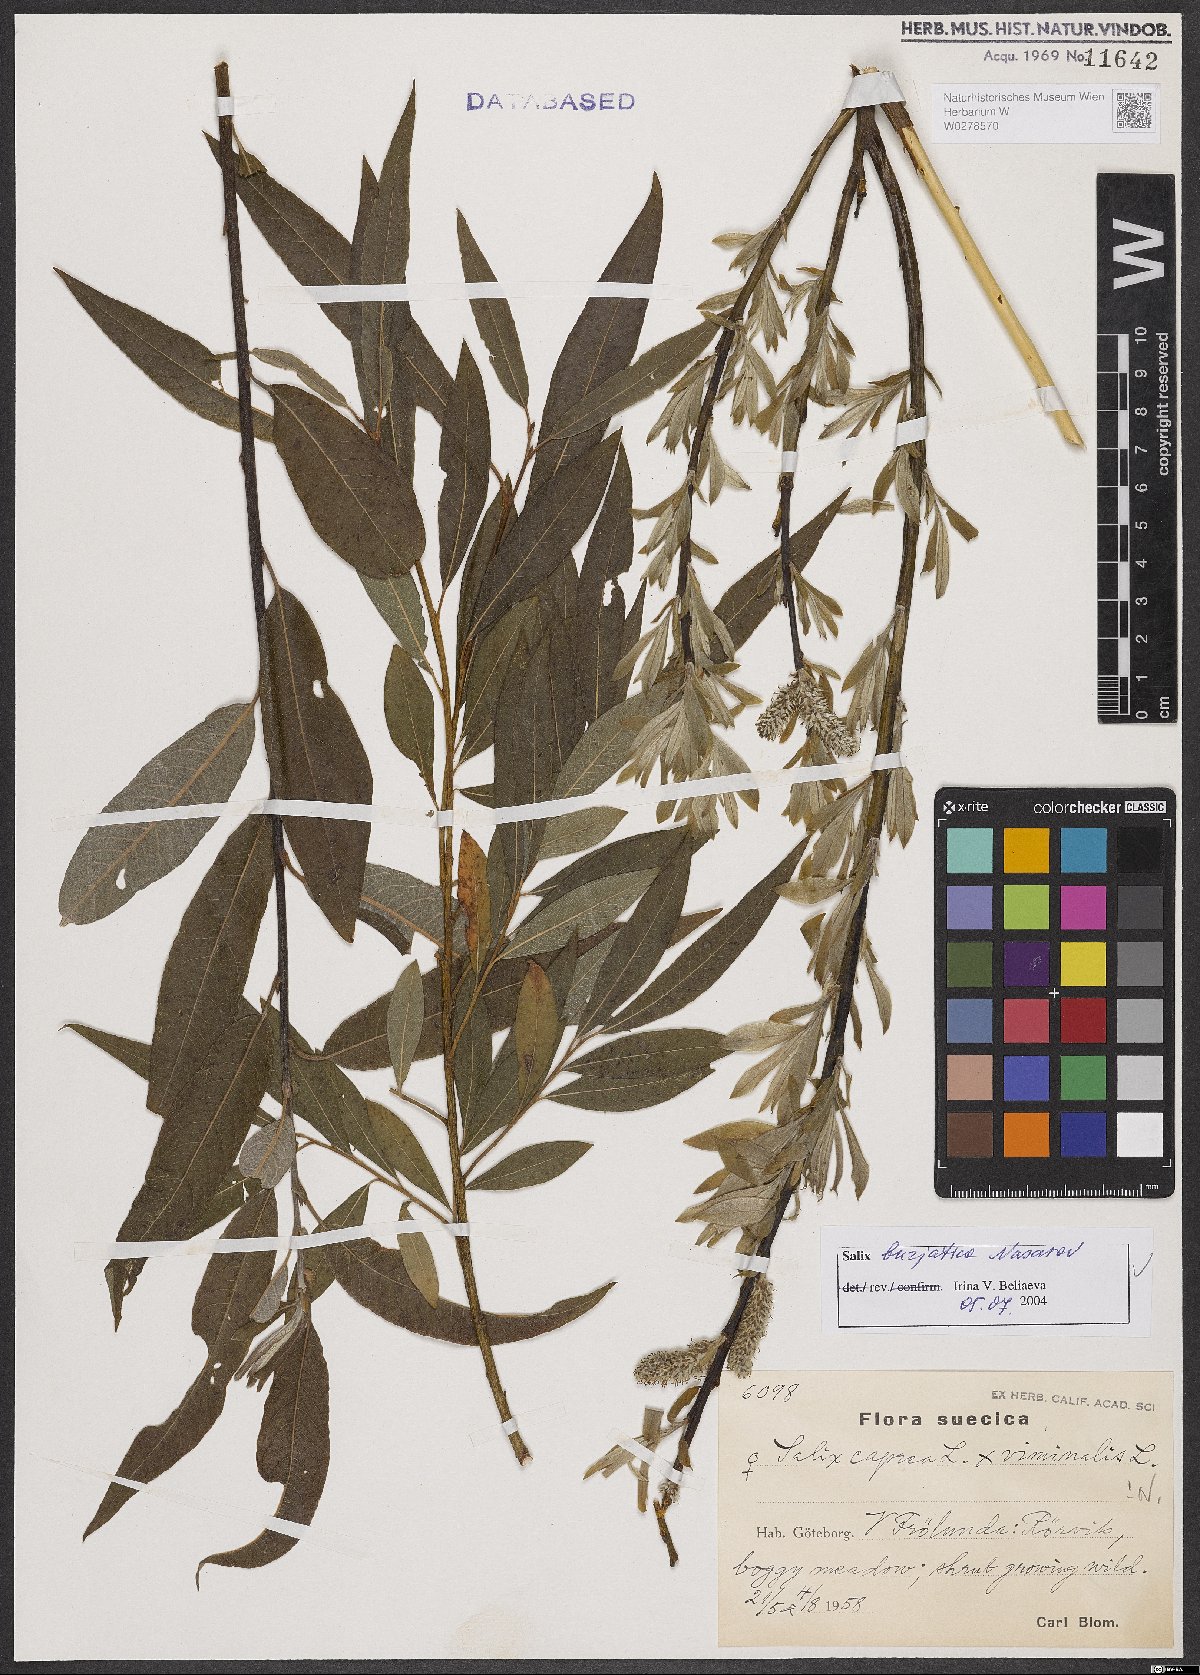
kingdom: Plantae
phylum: Tracheophyta
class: Magnoliopsida
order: Malpighiales
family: Salicaceae
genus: Salix
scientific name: Salix gmelinii
